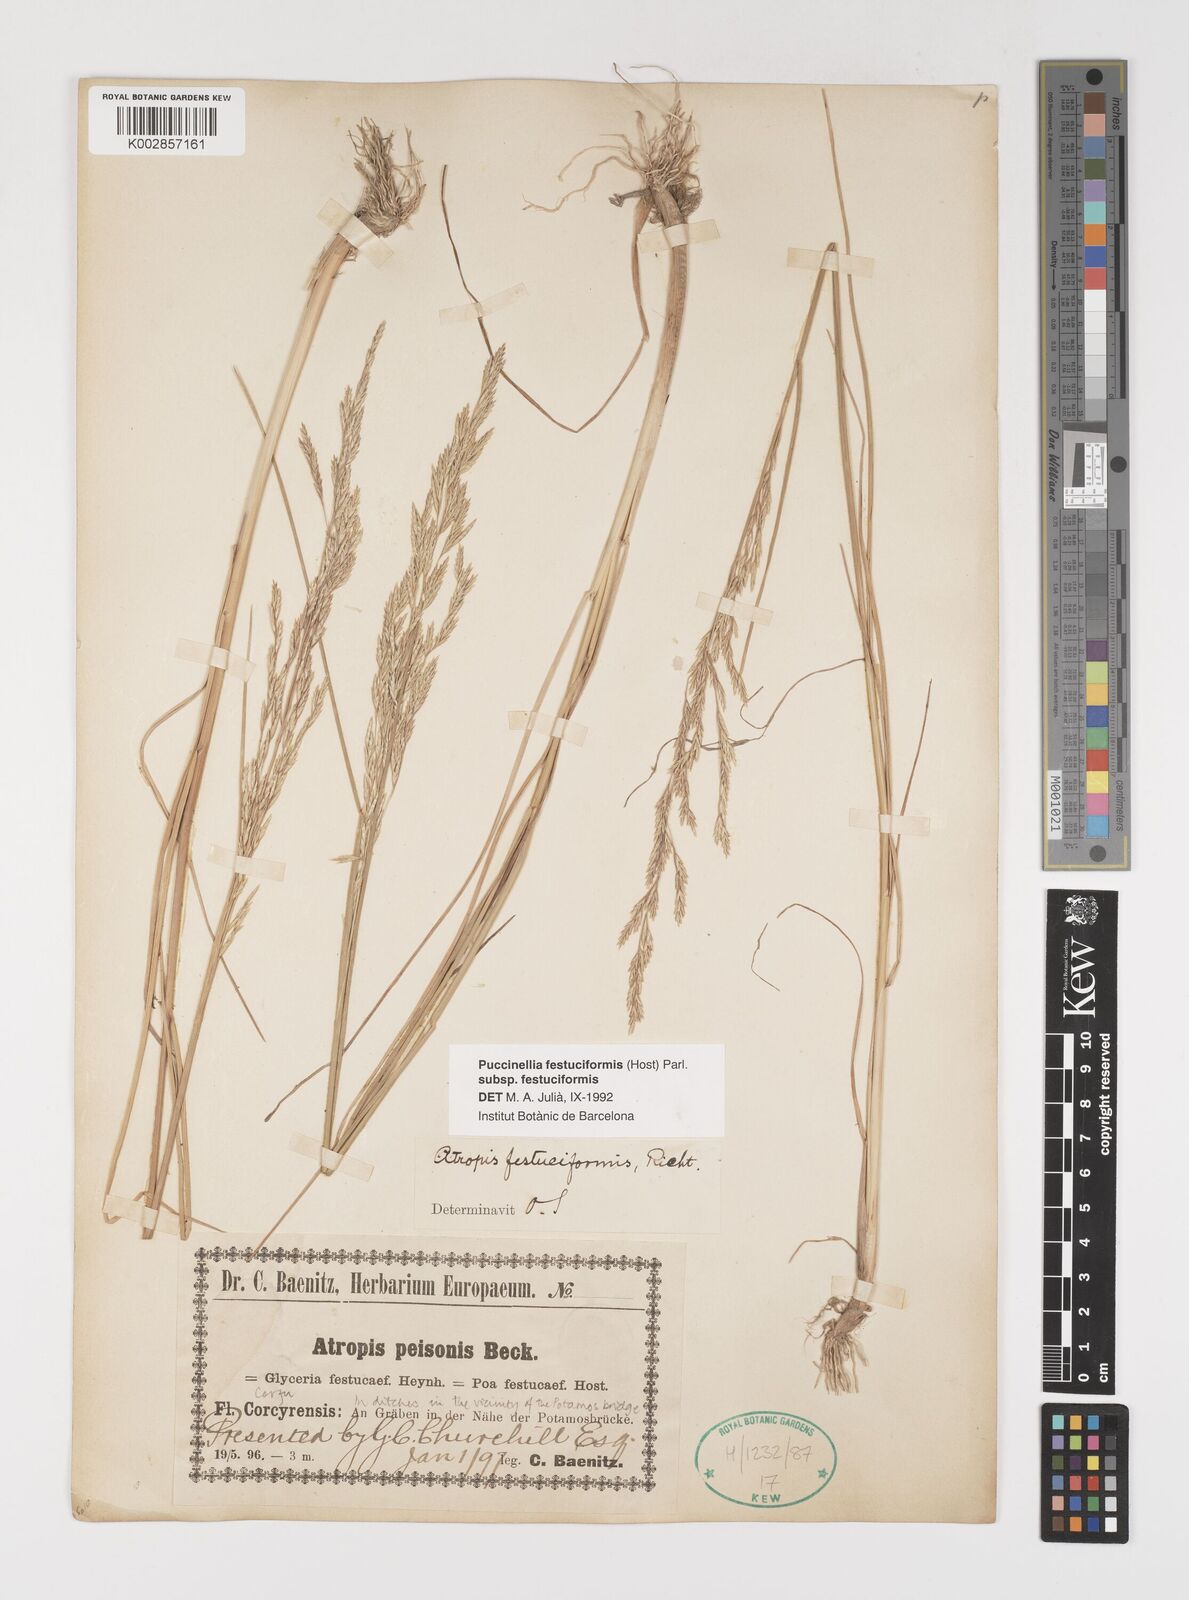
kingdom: Plantae
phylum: Tracheophyta
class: Liliopsida
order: Poales
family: Poaceae
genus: Puccinellia
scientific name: Puccinellia festuciformis
